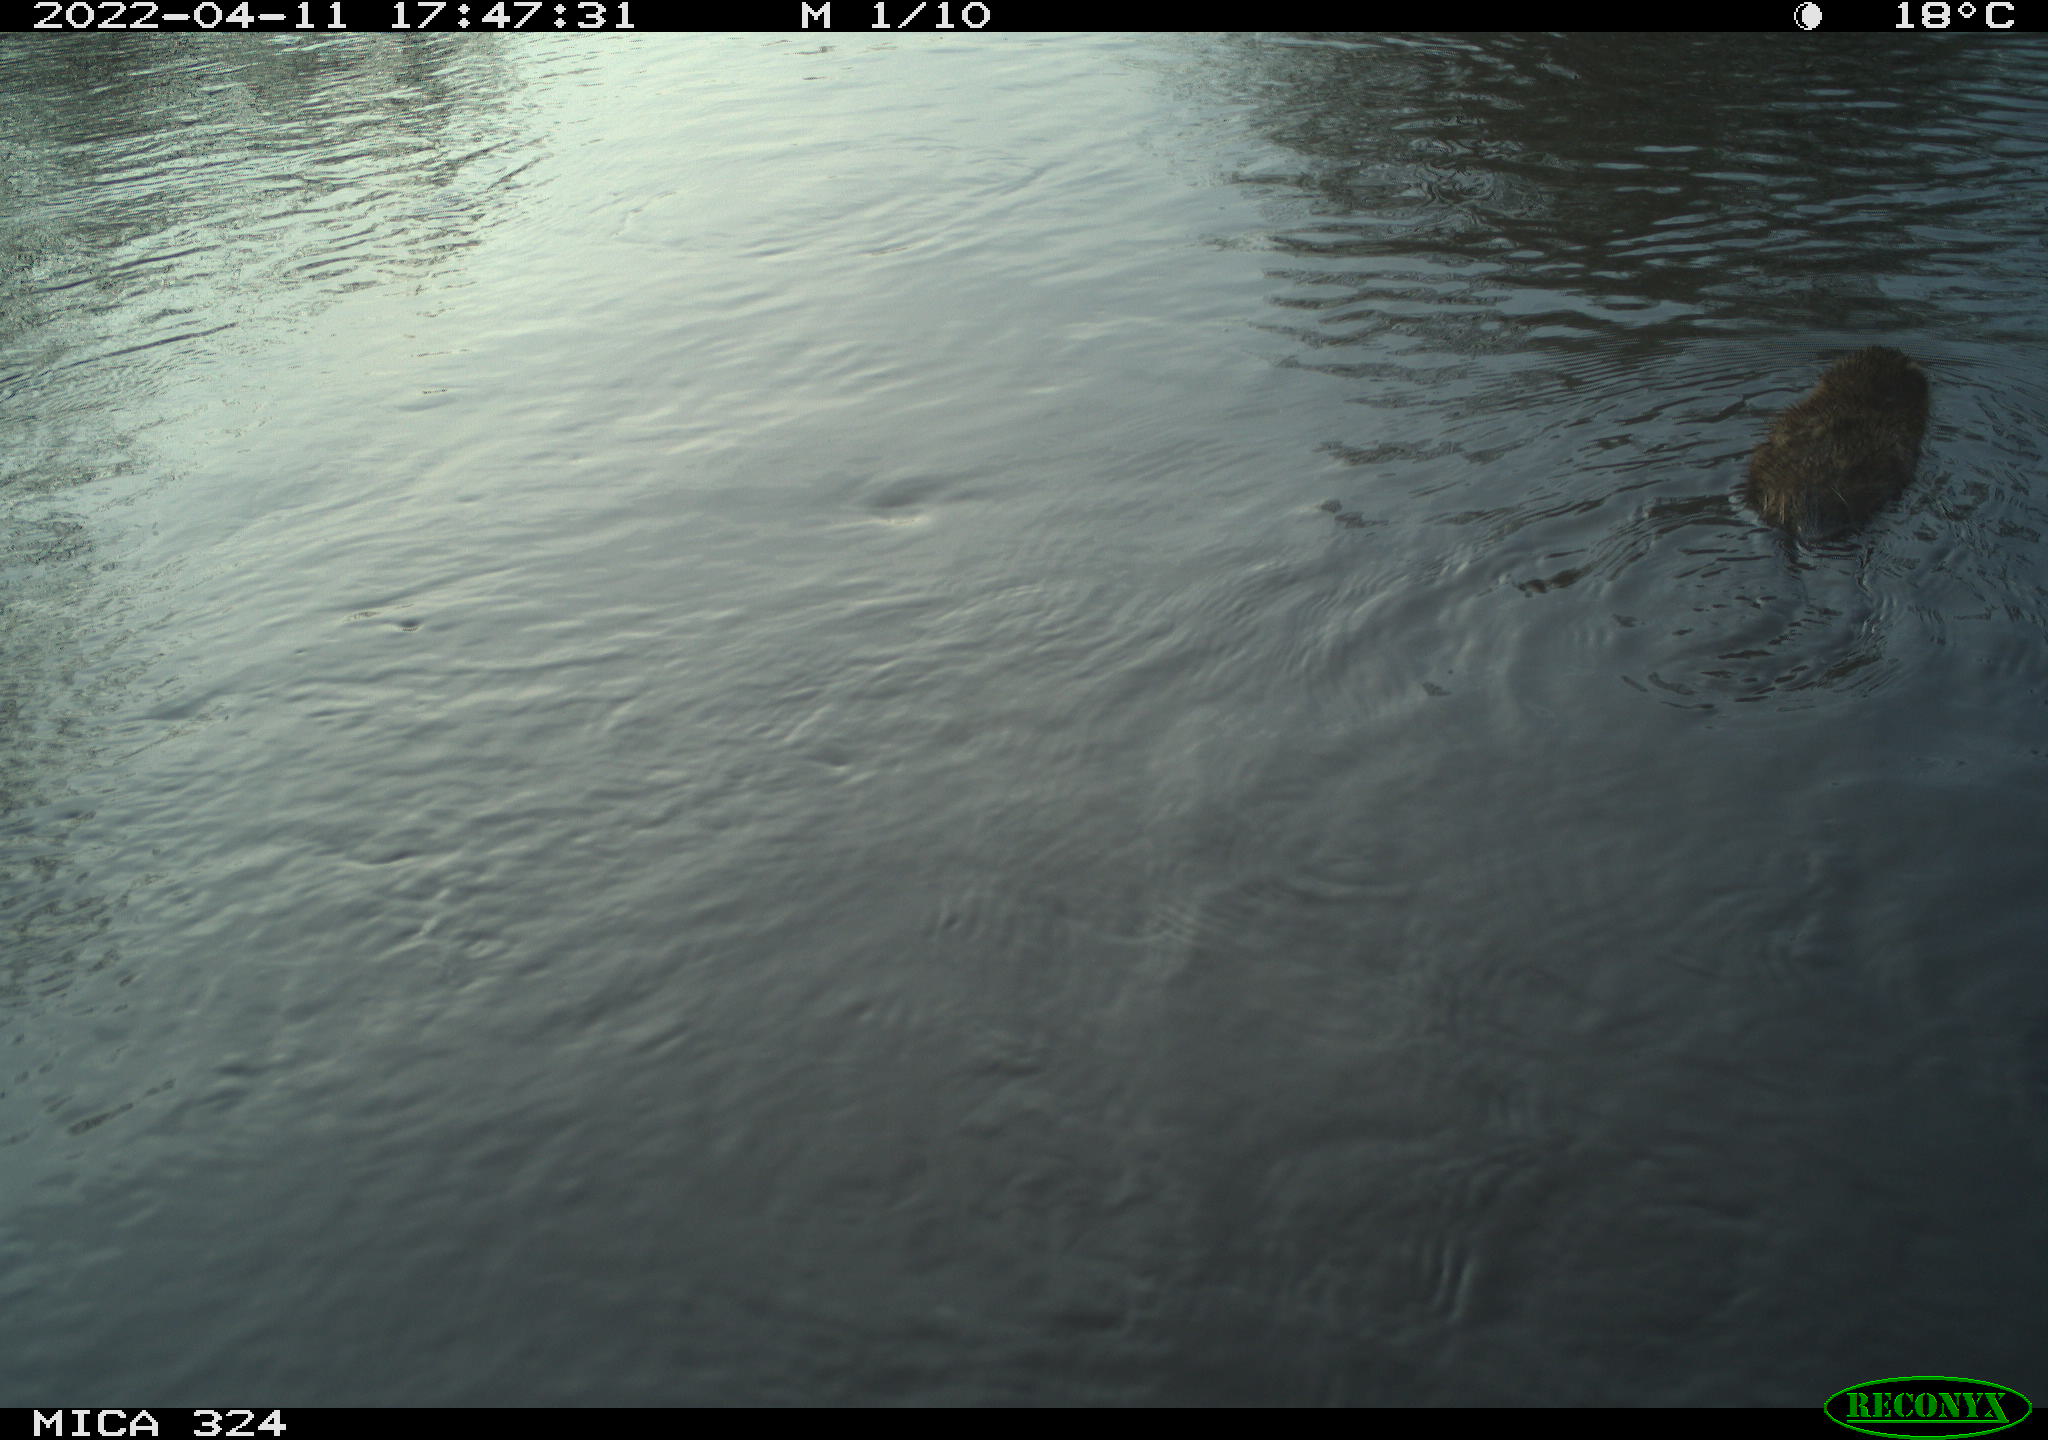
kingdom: Animalia
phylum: Chordata
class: Mammalia
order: Rodentia
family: Cricetidae
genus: Ondatra
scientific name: Ondatra zibethicus
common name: Muskrat
